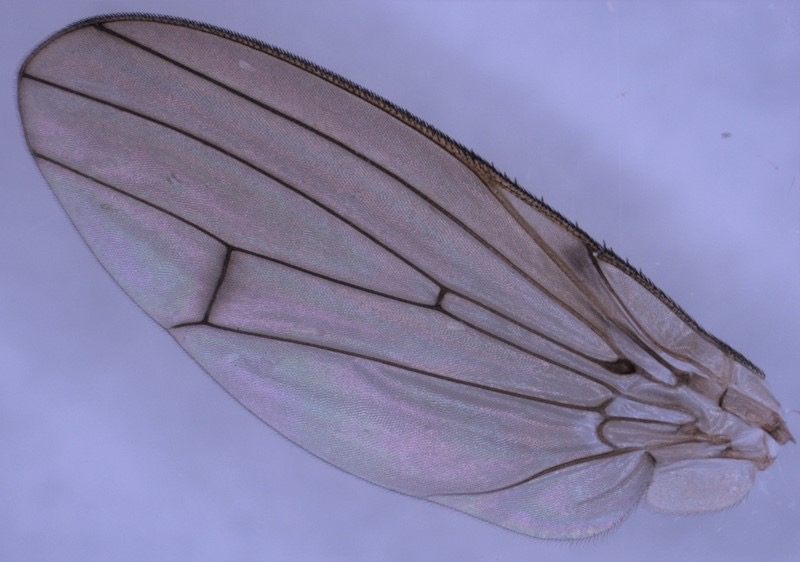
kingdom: Animalia
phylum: Arthropoda
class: Insecta
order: Diptera
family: Heleomyzidae
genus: Tephrochlamys
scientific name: Tephrochlamys flavipes
